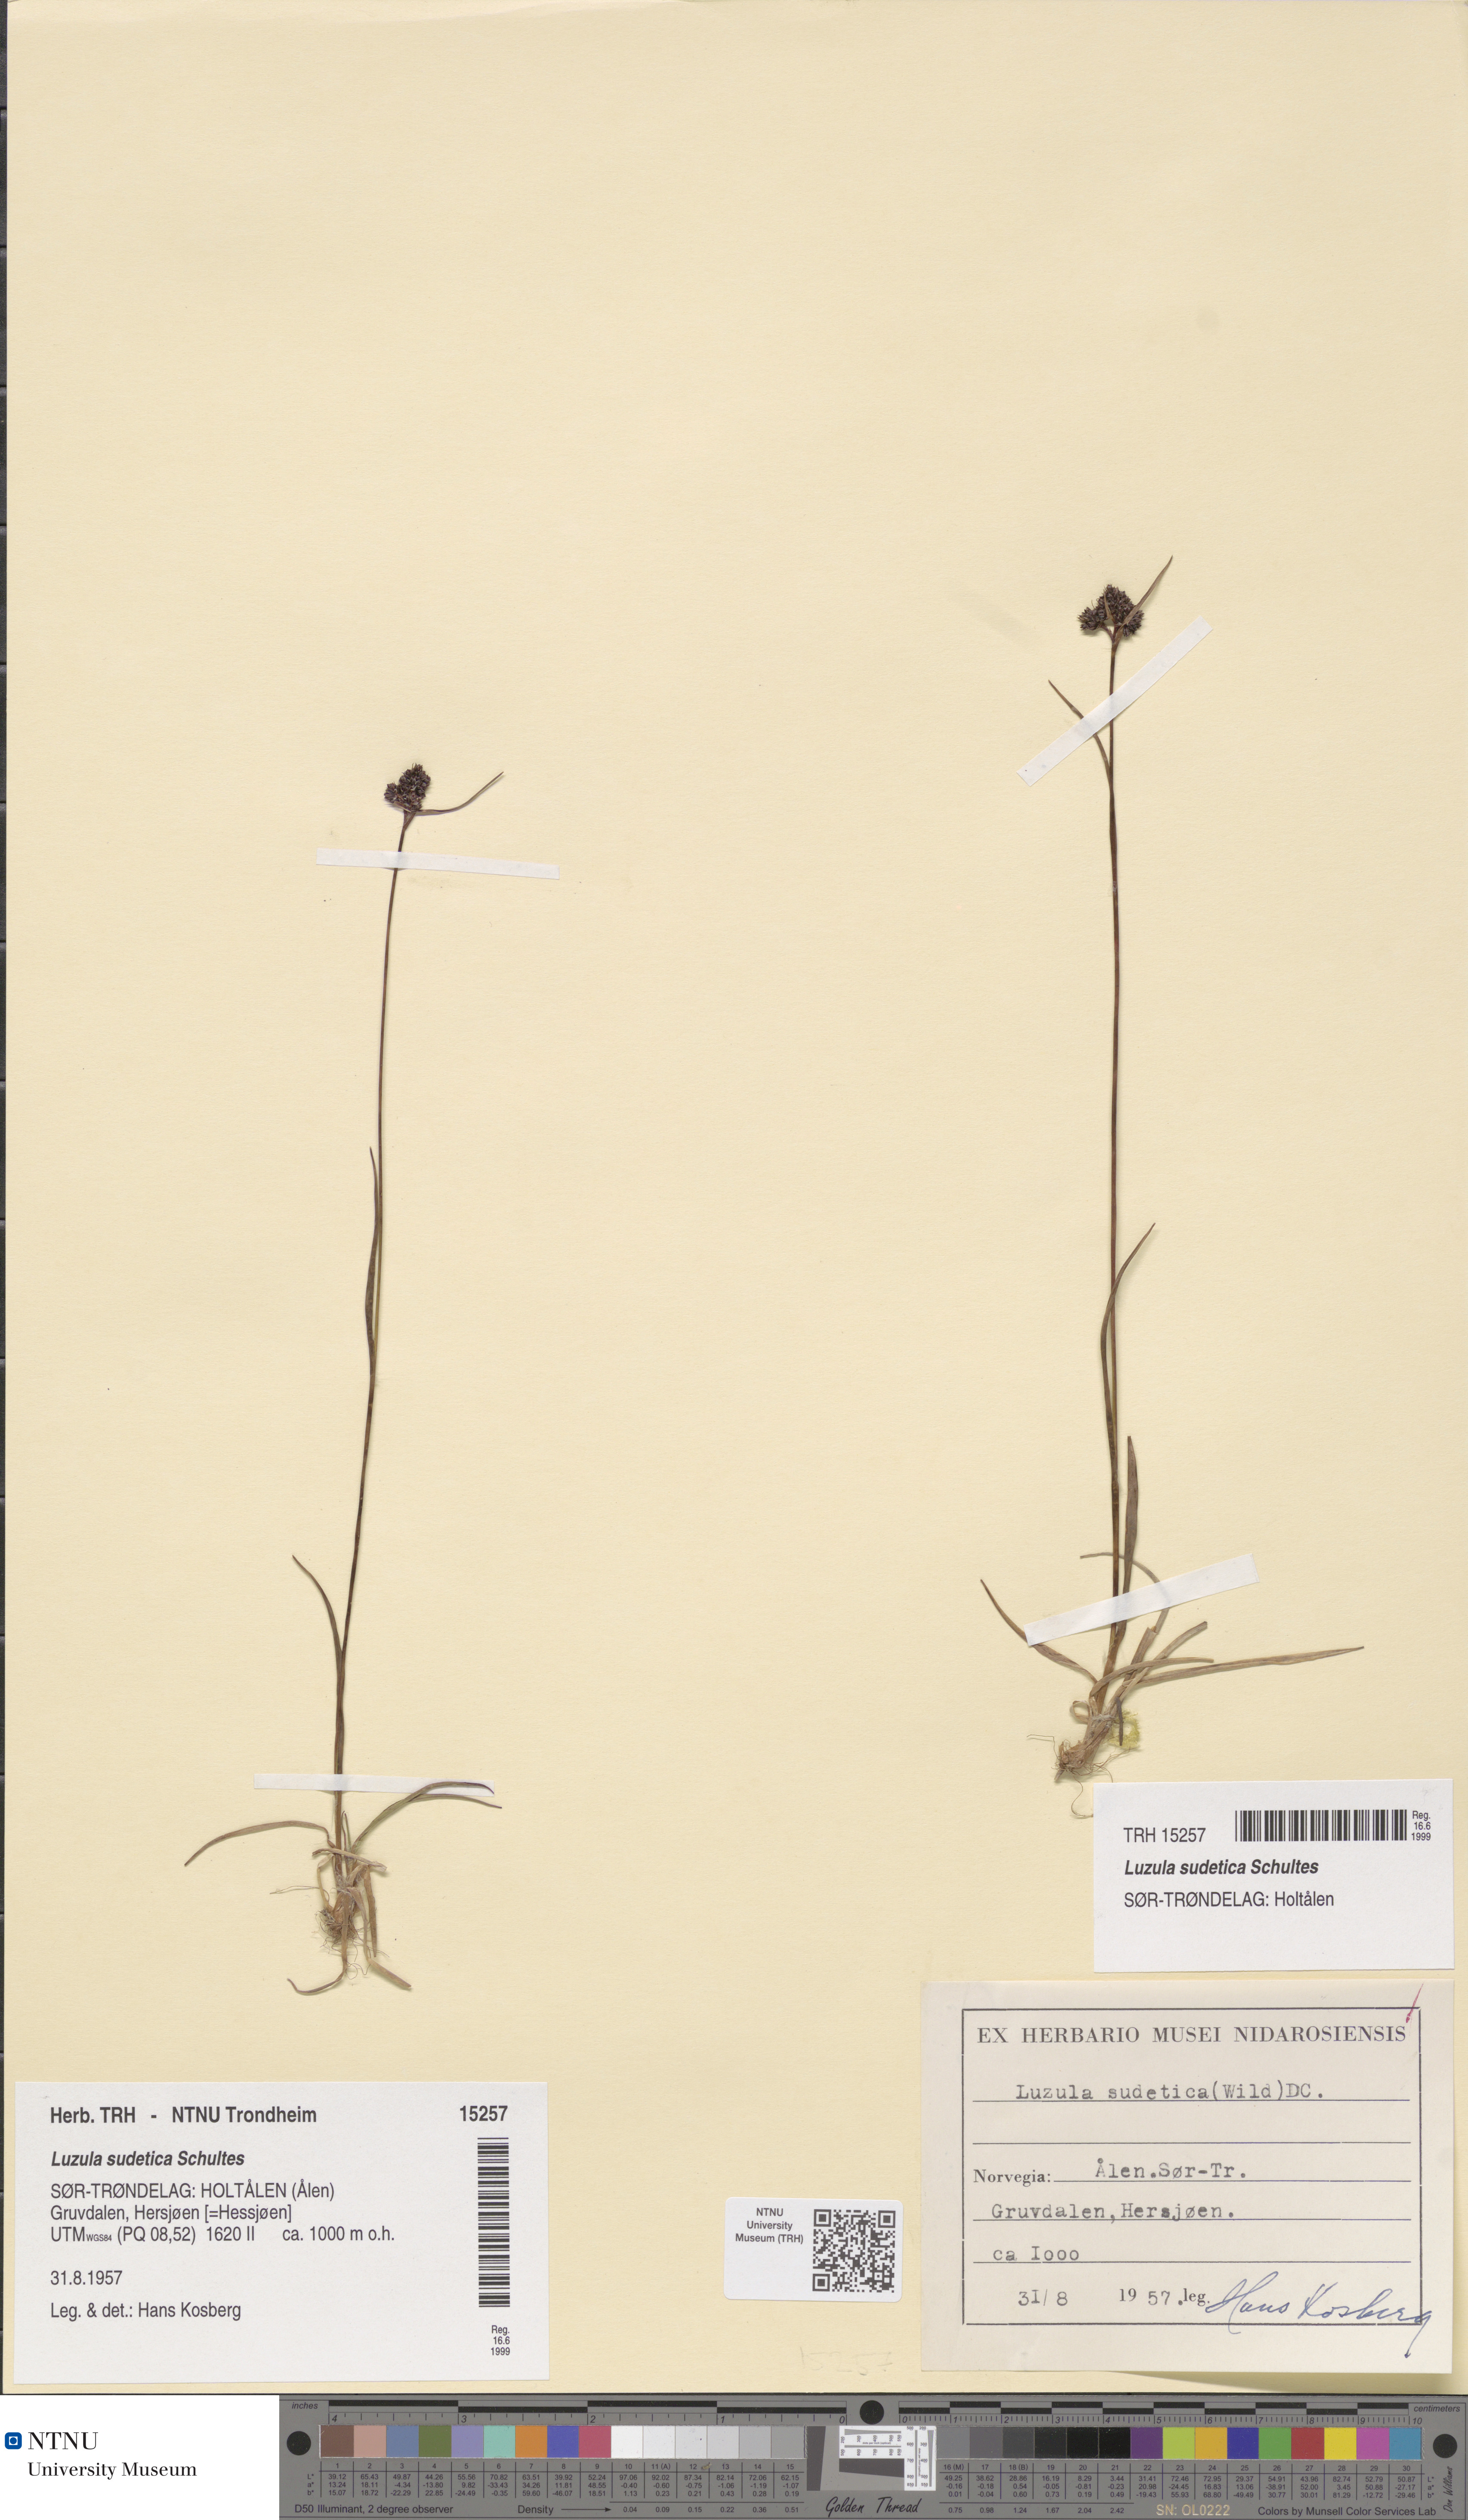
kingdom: Plantae
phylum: Tracheophyta
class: Liliopsida
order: Poales
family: Juncaceae
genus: Luzula
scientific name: Luzula sudetica
